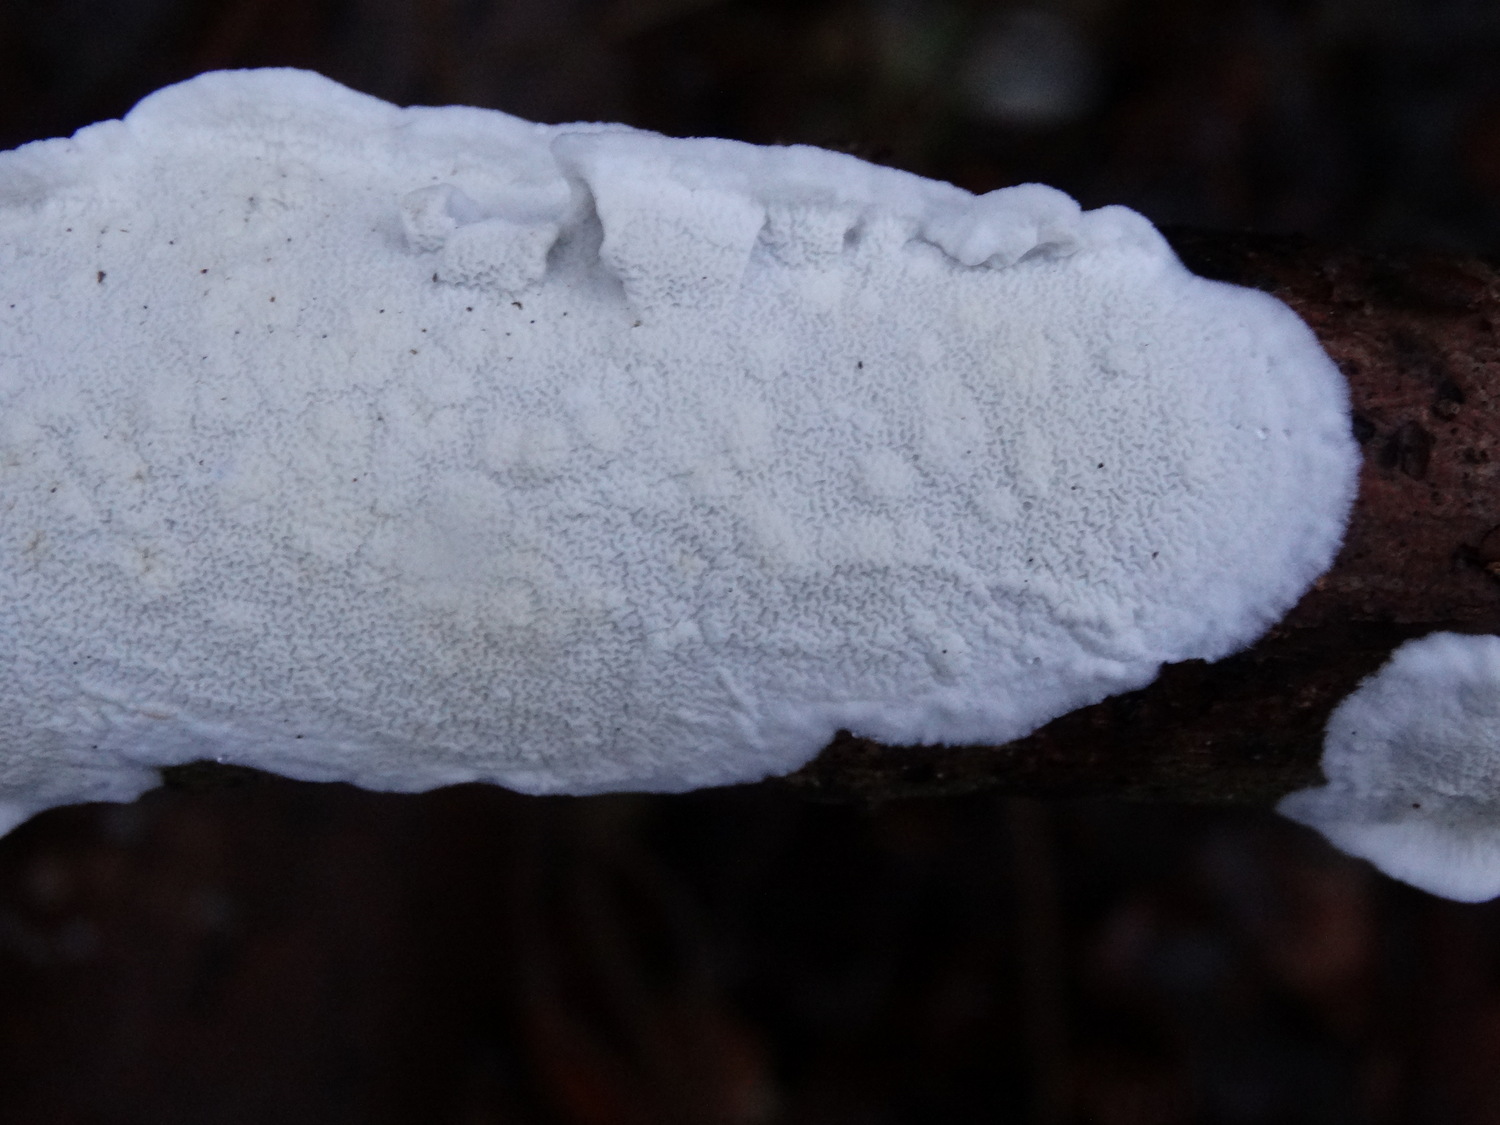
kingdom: Fungi
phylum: Basidiomycota
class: Agaricomycetes
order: Polyporales
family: Irpicaceae
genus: Byssomerulius
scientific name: Byssomerulius corium
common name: læder-åresvamp
